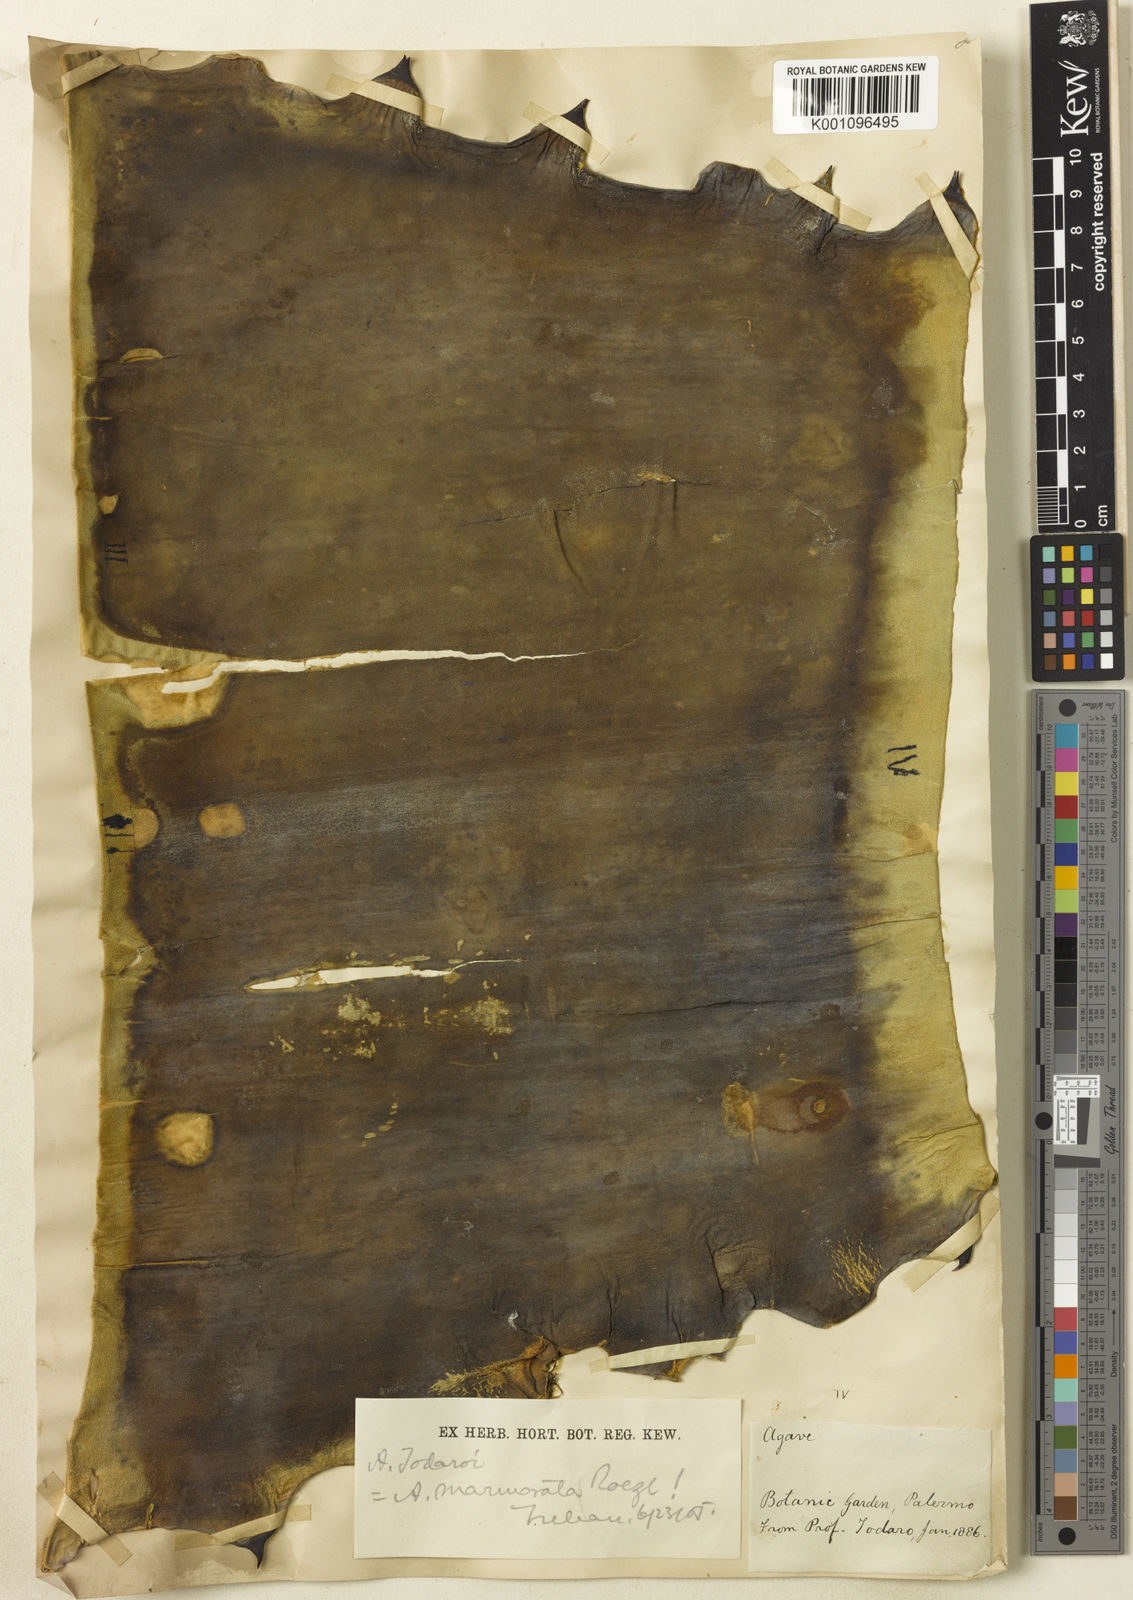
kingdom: Plantae
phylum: Tracheophyta
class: Liliopsida
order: Asparagales
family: Asparagaceae
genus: Agave
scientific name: Agave marmorata
